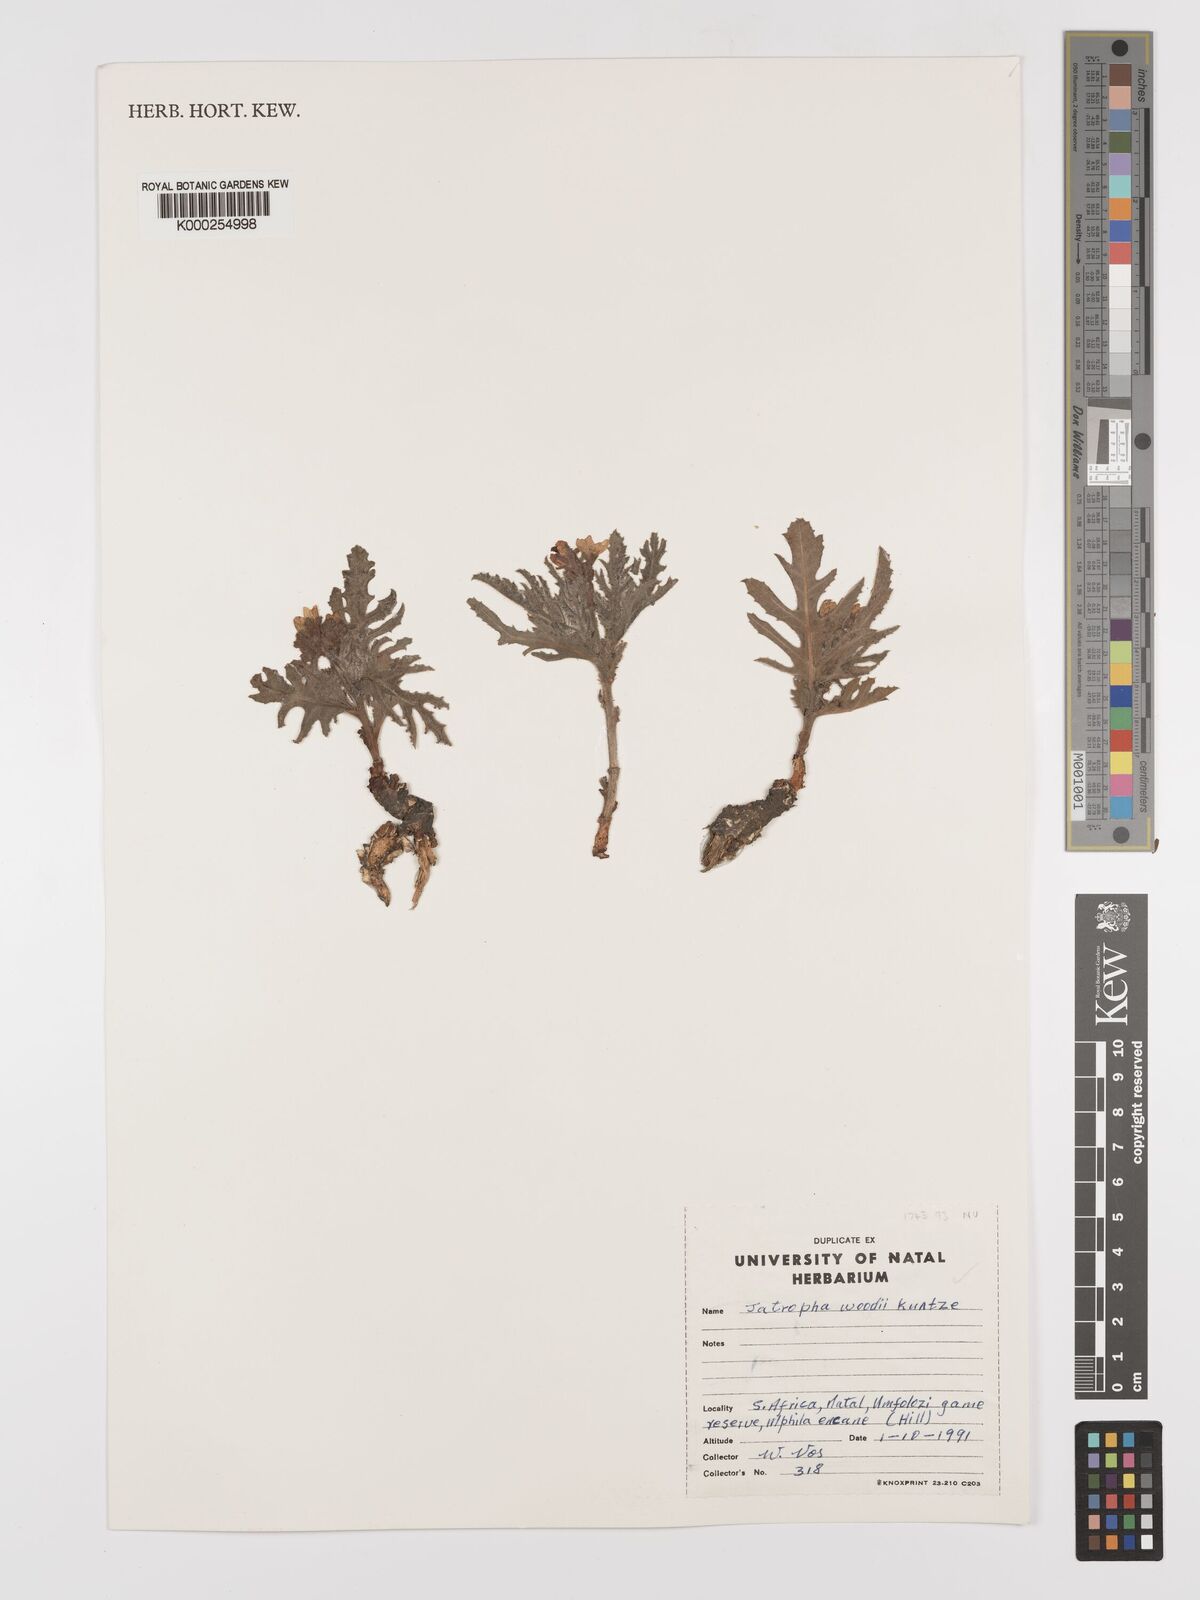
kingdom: Plantae
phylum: Tracheophyta
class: Magnoliopsida
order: Malpighiales
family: Euphorbiaceae
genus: Jatropha
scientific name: Jatropha woodii
